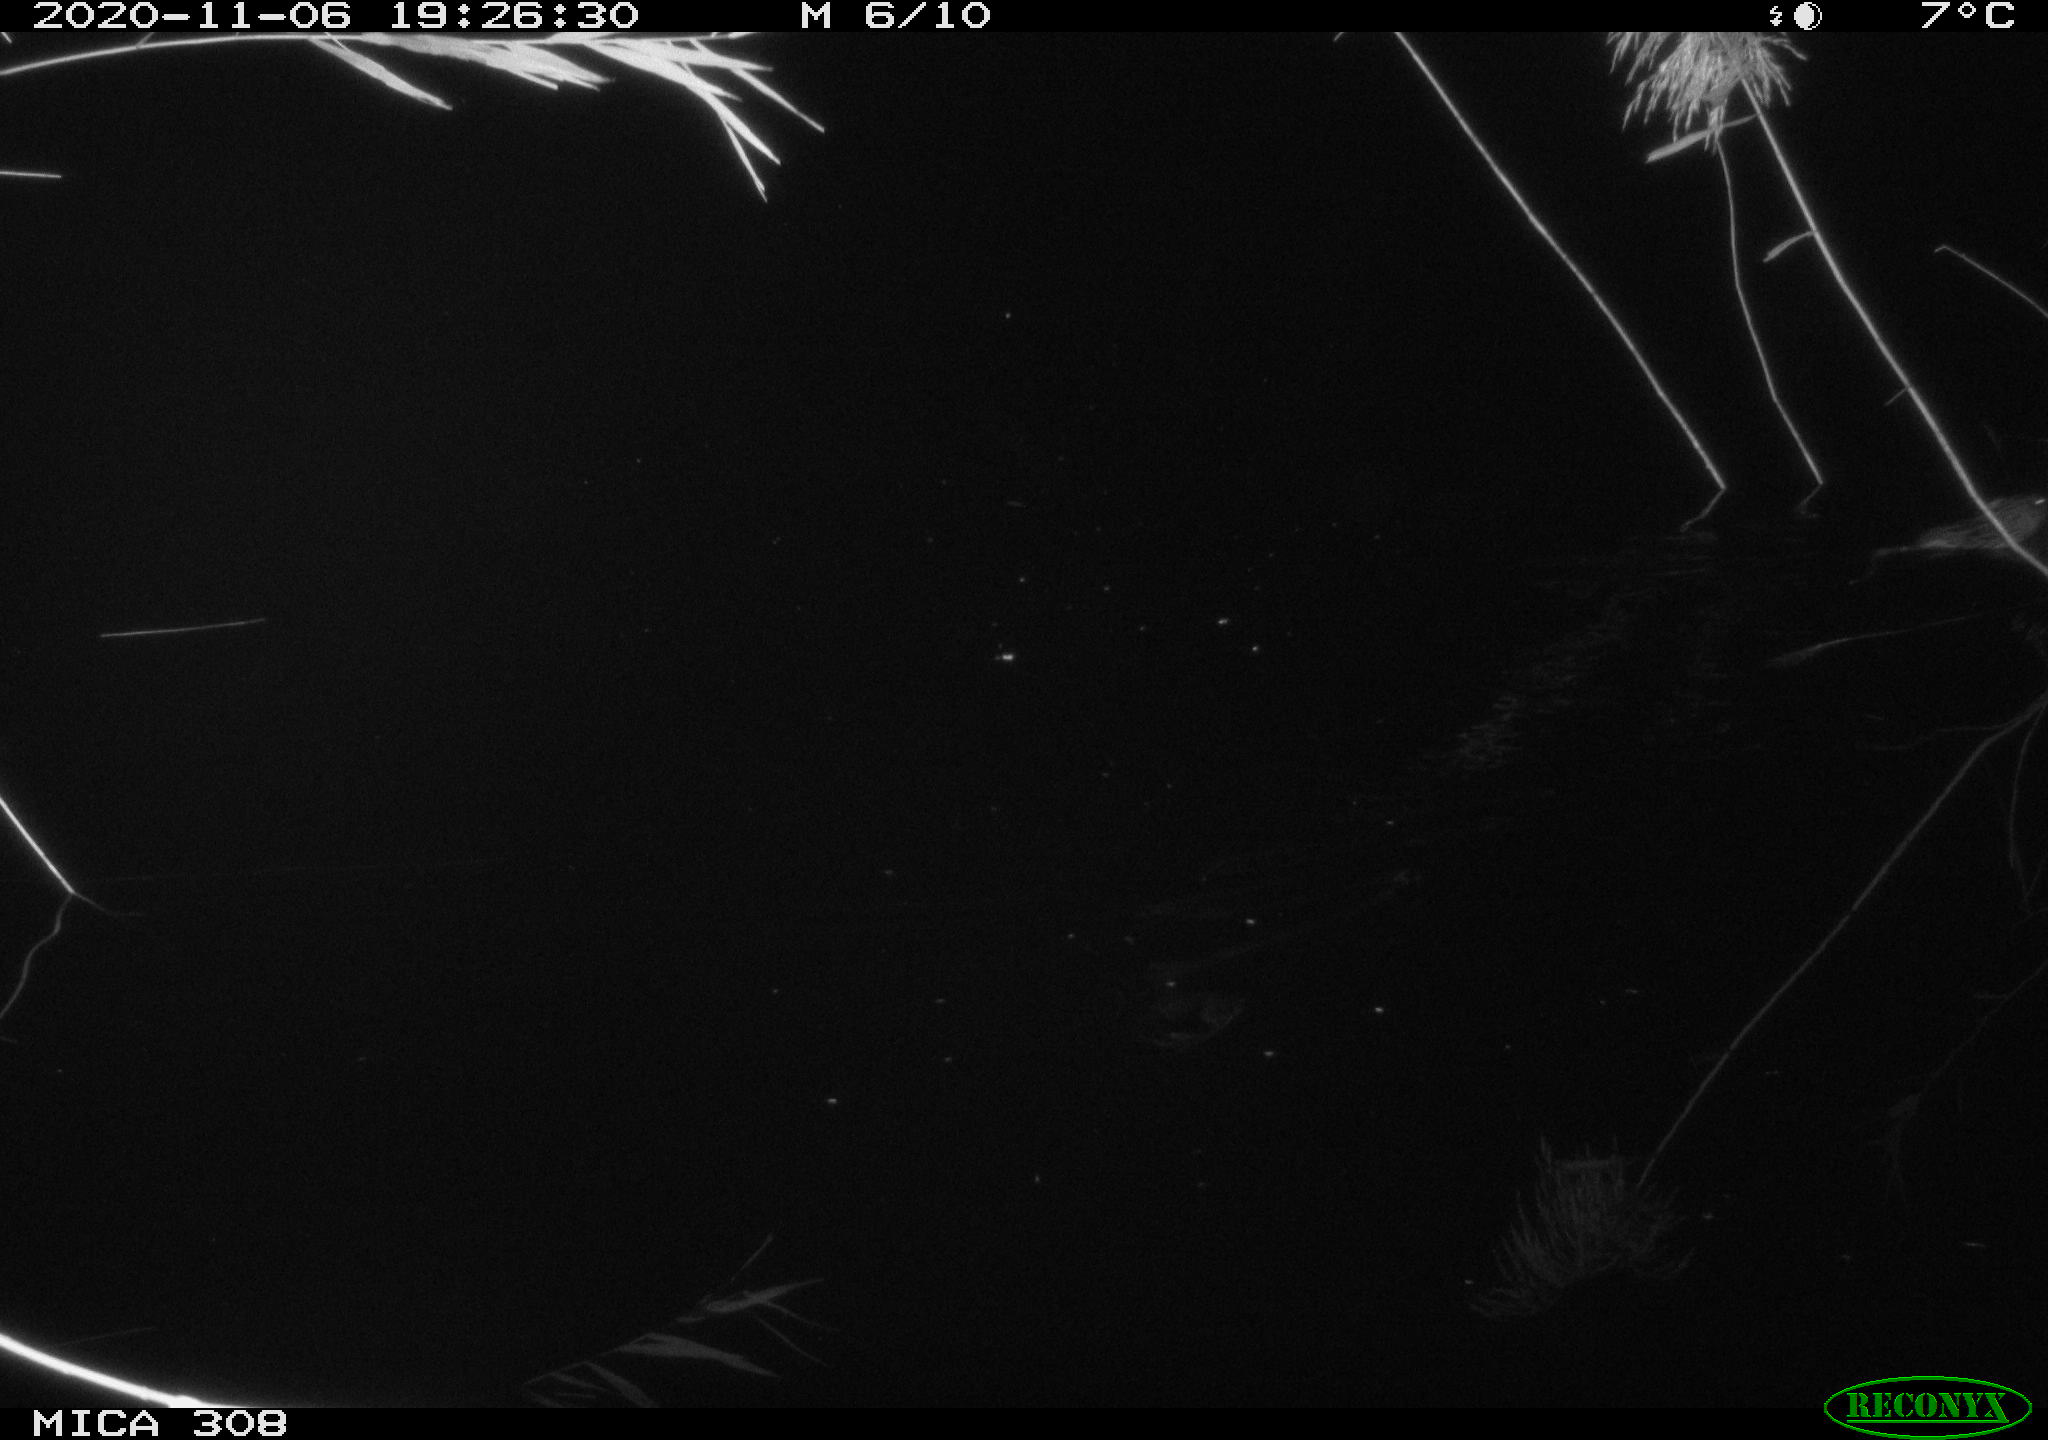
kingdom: Animalia
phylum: Chordata
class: Mammalia
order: Rodentia
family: Cricetidae
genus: Ondatra
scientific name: Ondatra zibethicus
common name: Muskrat
